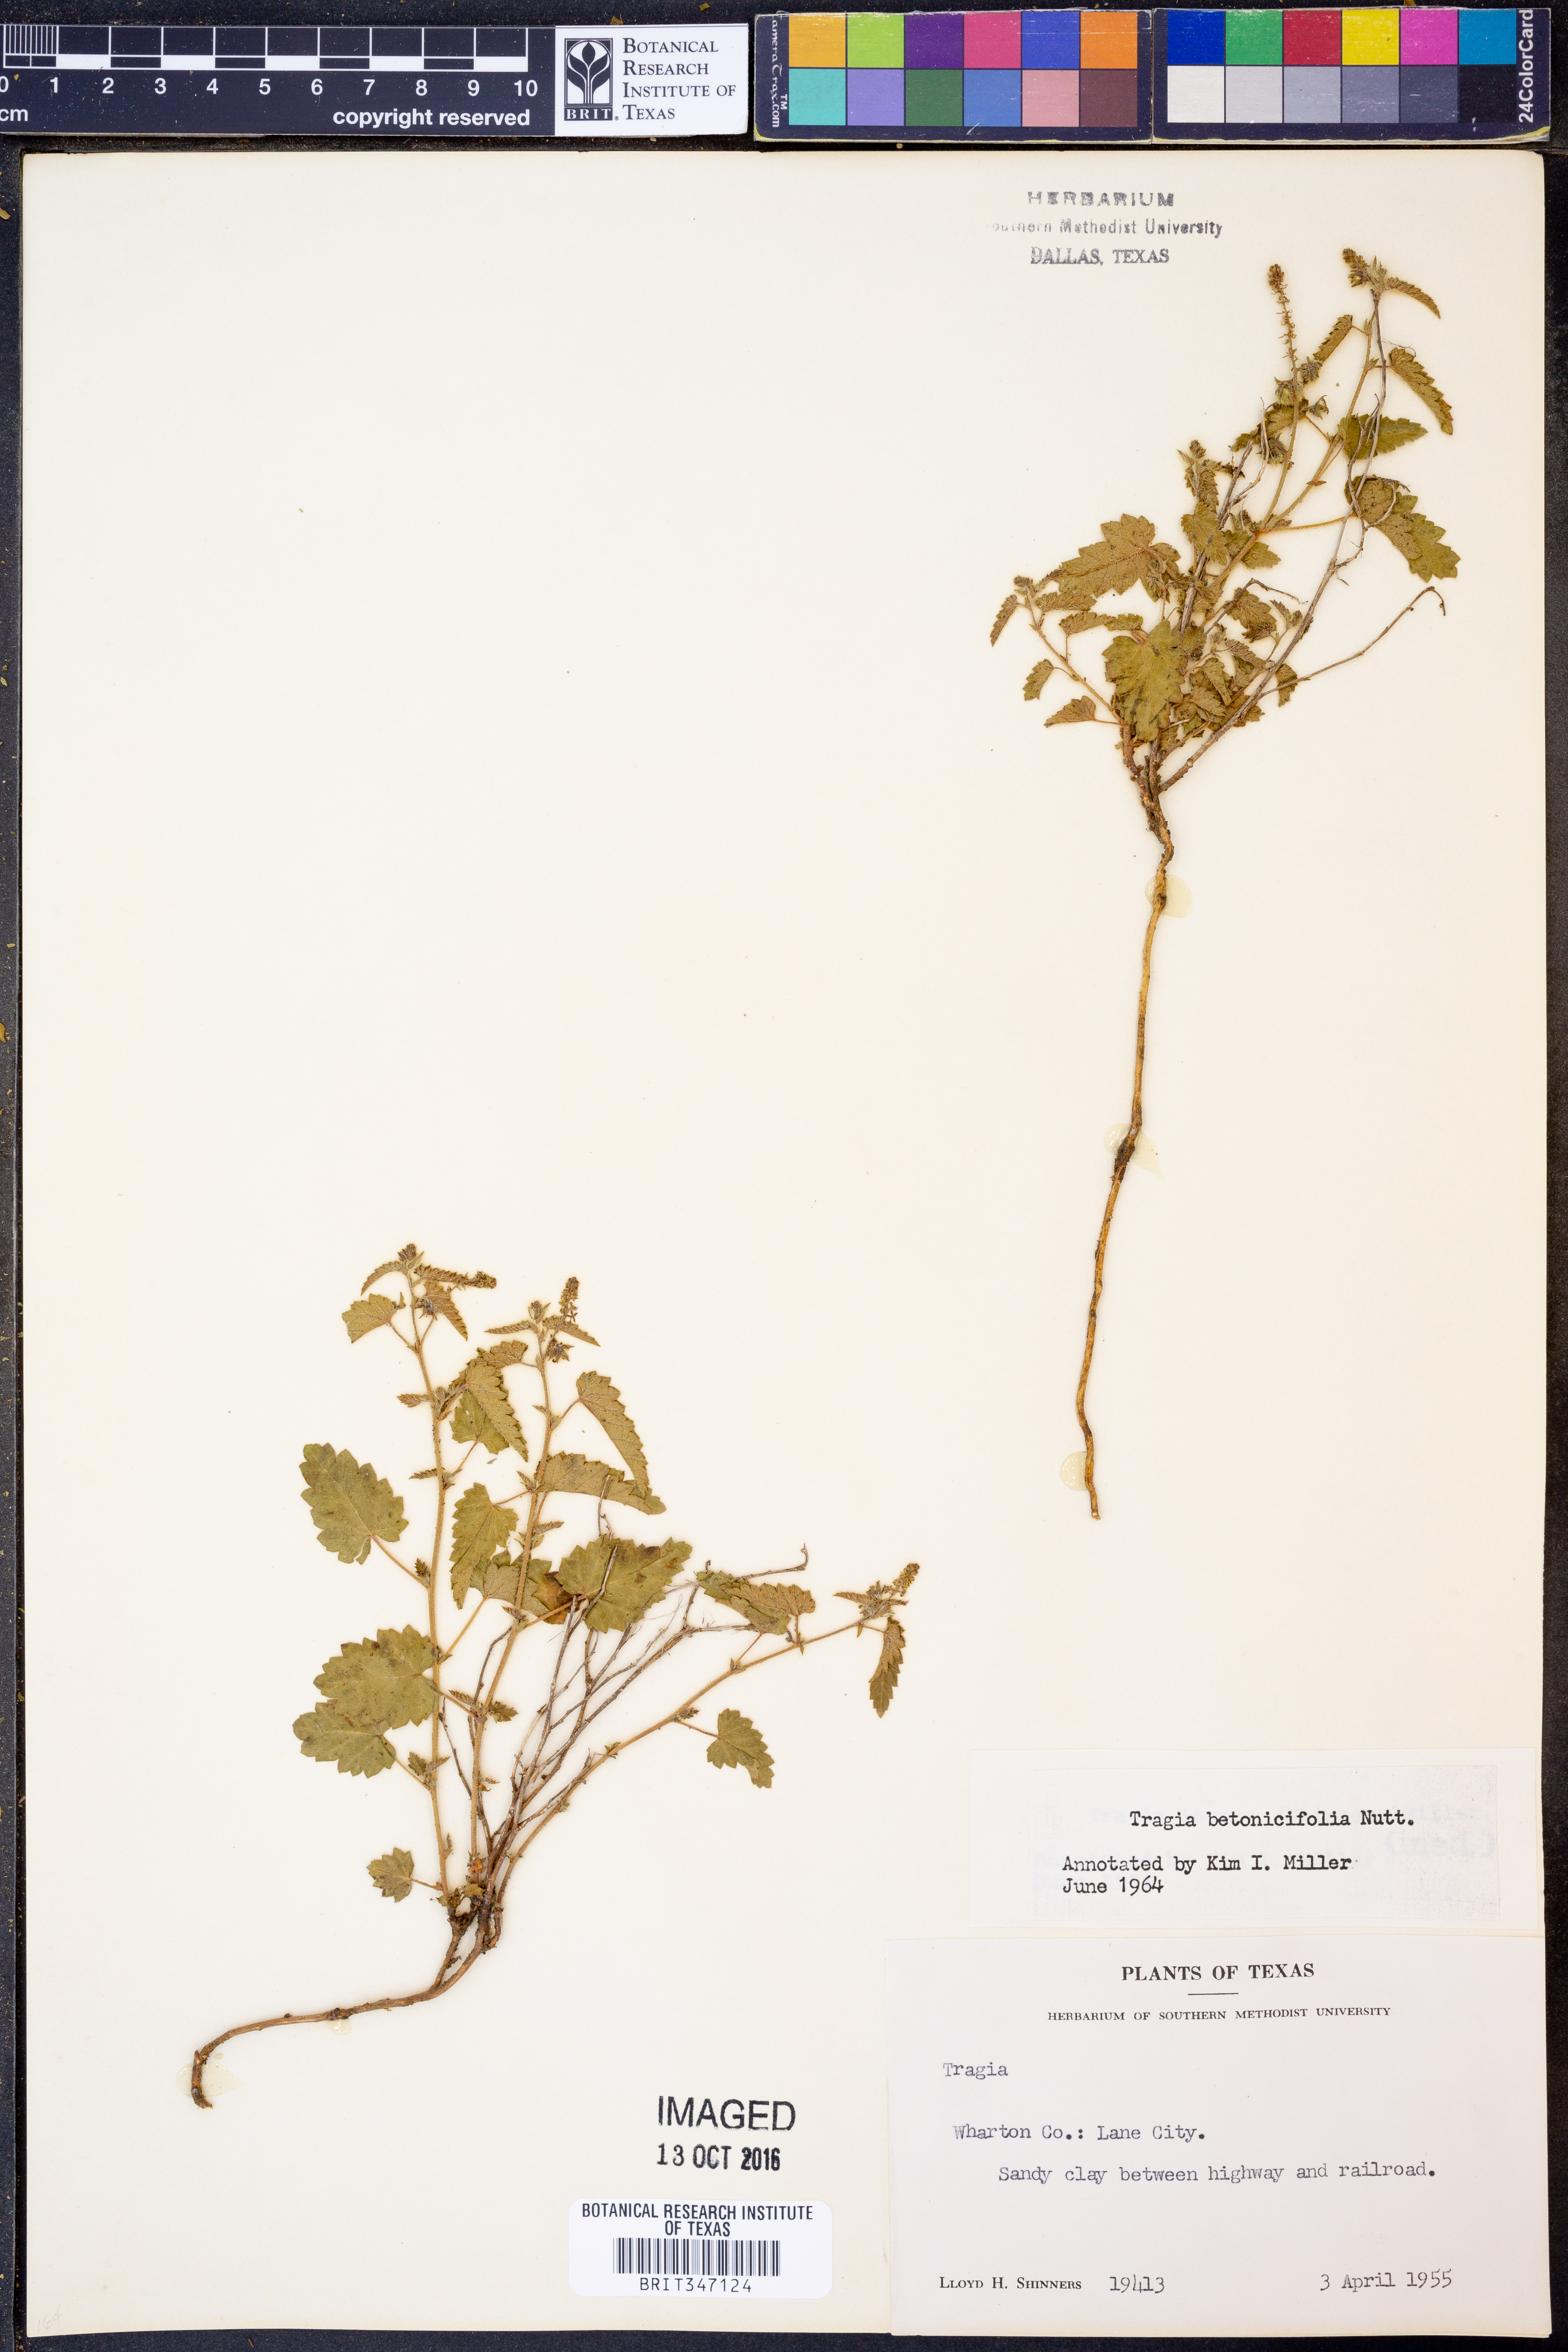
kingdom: Plantae
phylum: Tracheophyta
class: Magnoliopsida
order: Malpighiales
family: Euphorbiaceae
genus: Tragia
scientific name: Tragia betonicifolia
